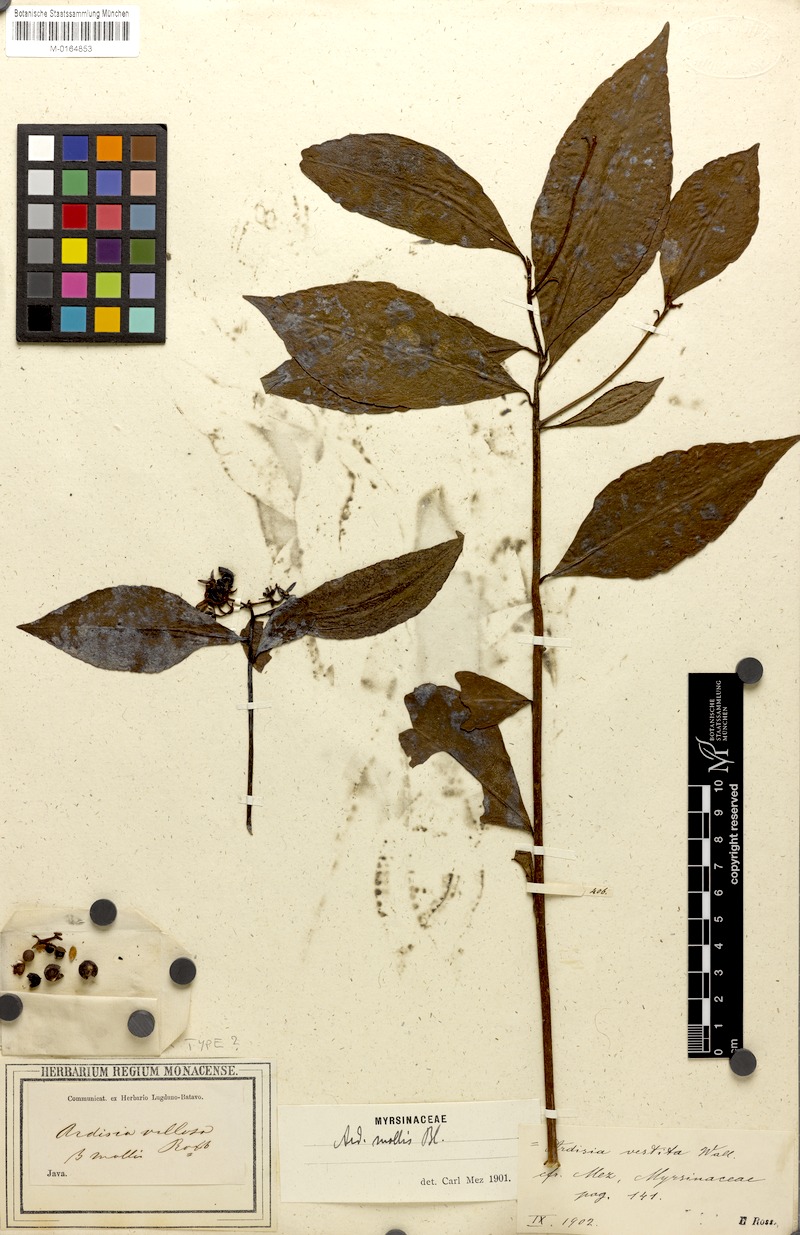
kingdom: Plantae
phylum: Tracheophyta
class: Magnoliopsida
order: Ericales
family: Primulaceae
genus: Ardisia
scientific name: Ardisia villosa
